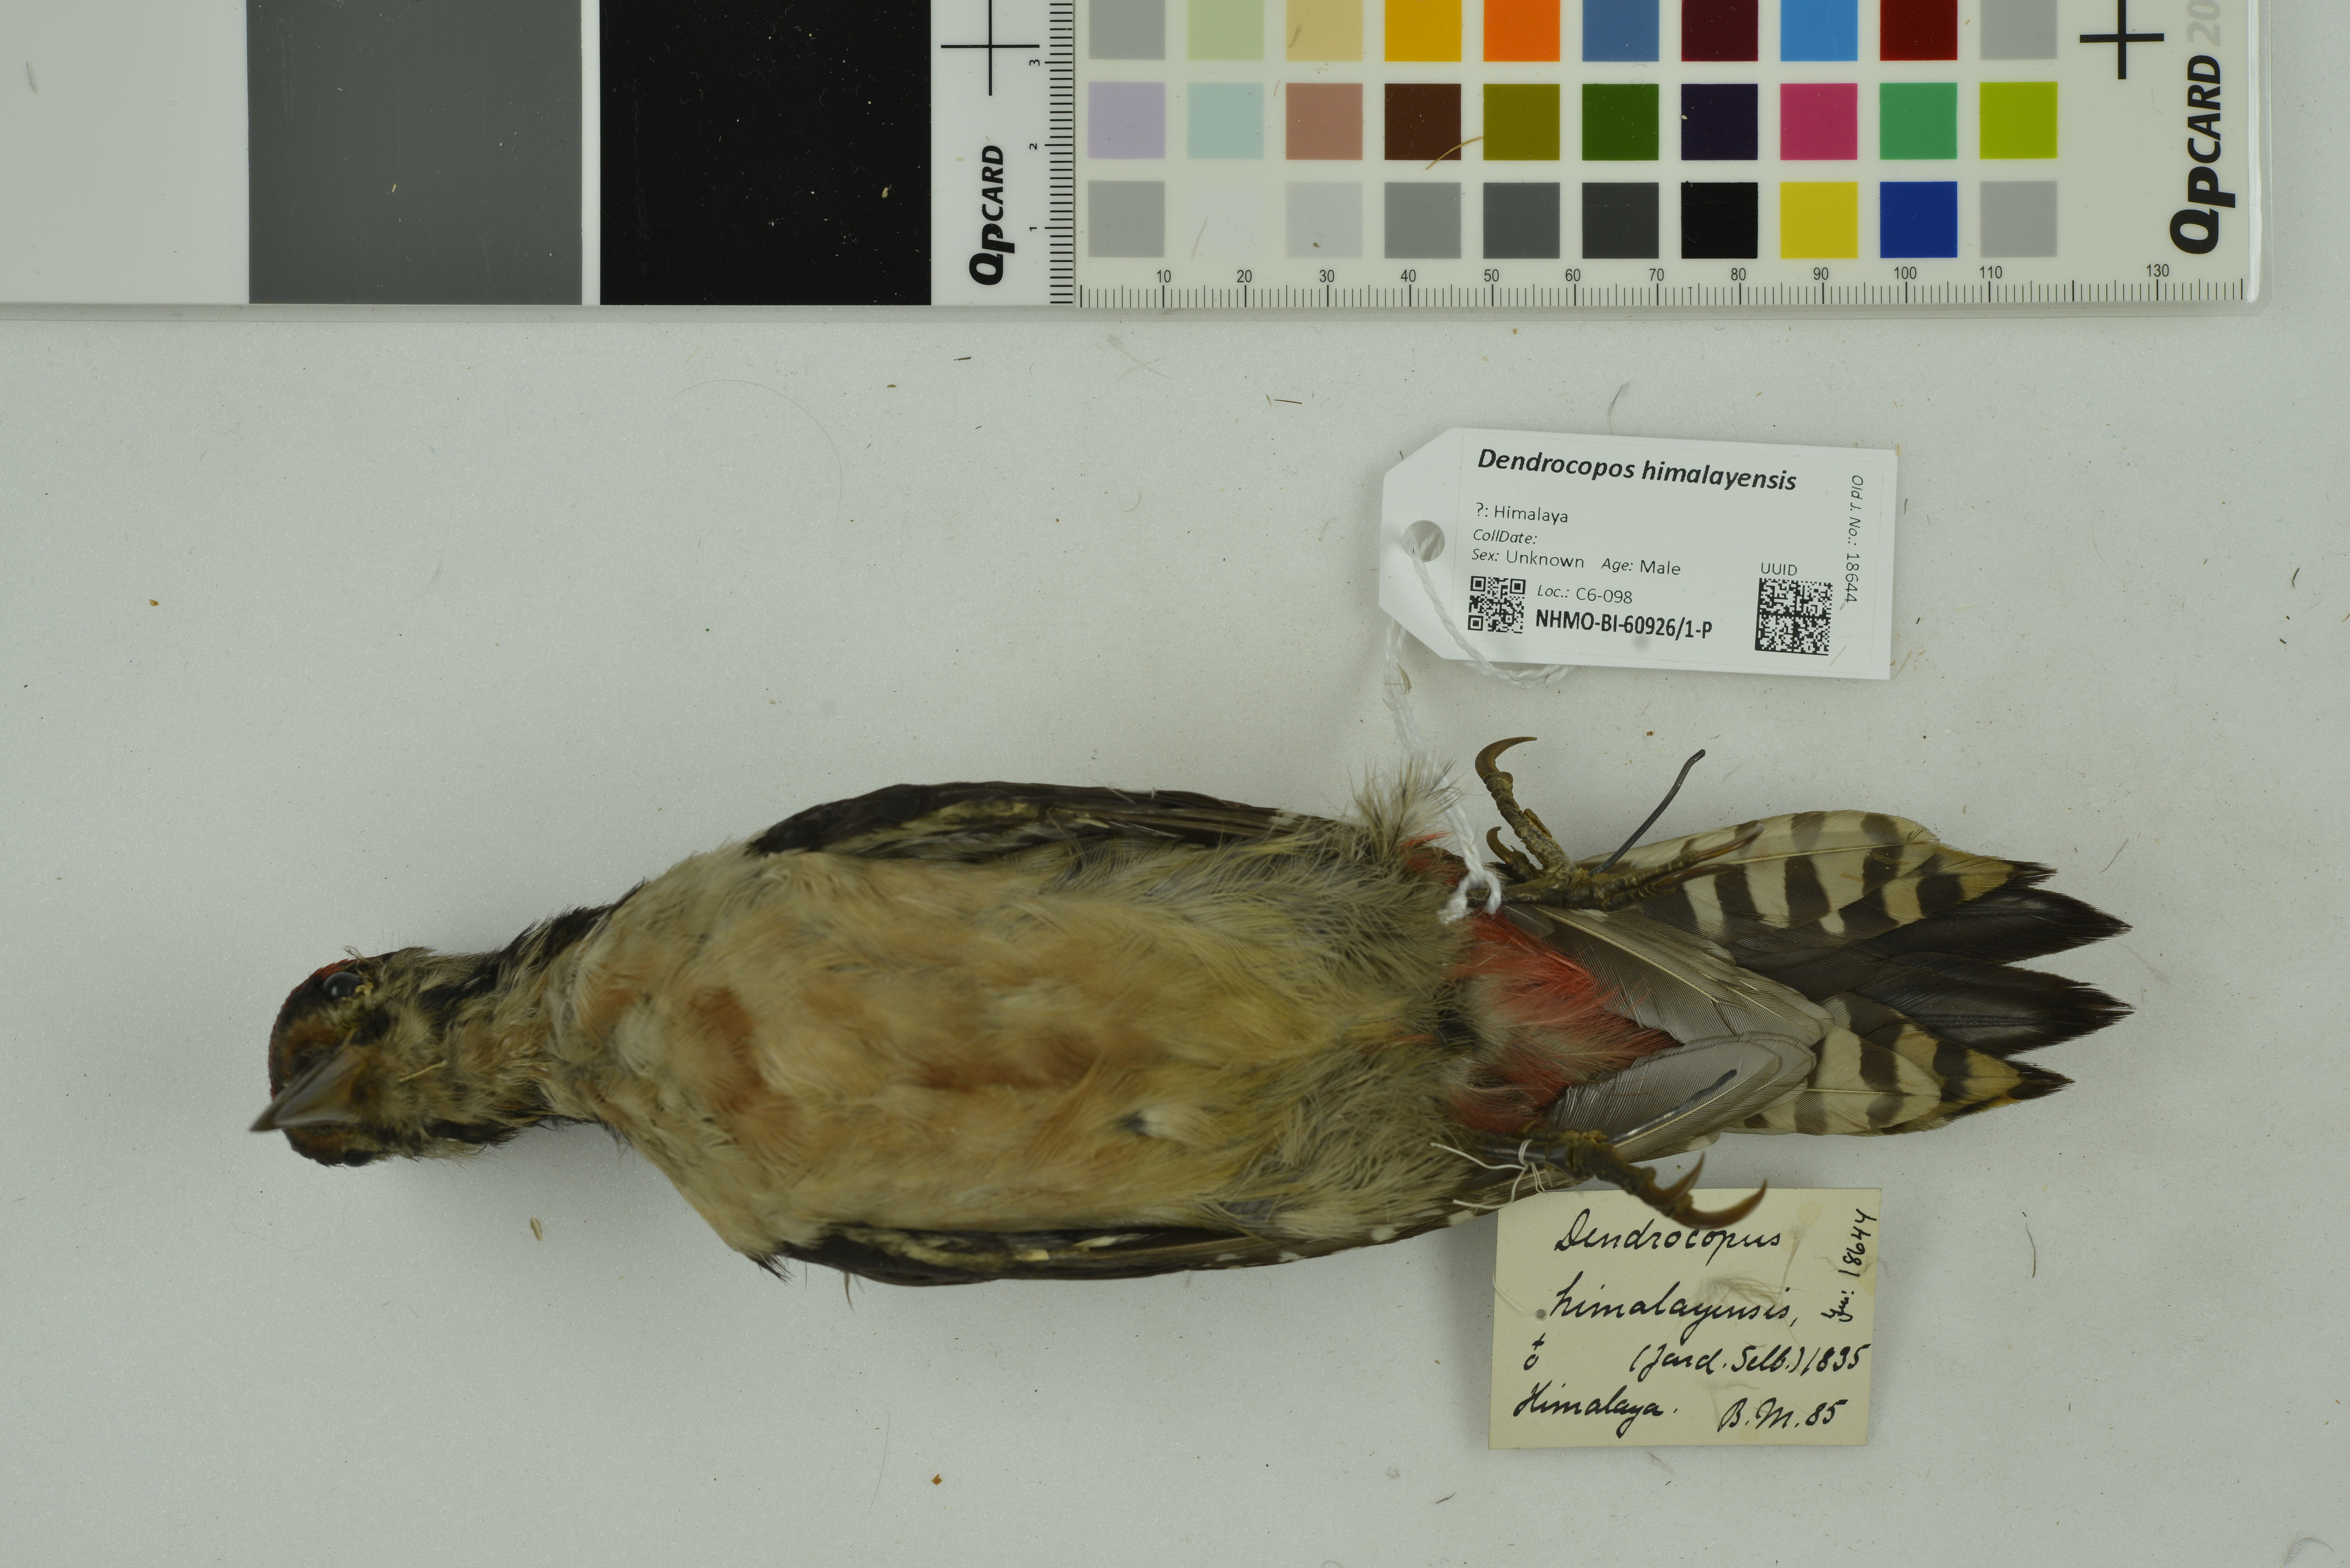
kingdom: Animalia
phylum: Chordata
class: Aves
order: Piciformes
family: Picidae
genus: Dendrocopos
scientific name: Dendrocopos himalayensis
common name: Himalayan woodpecker
